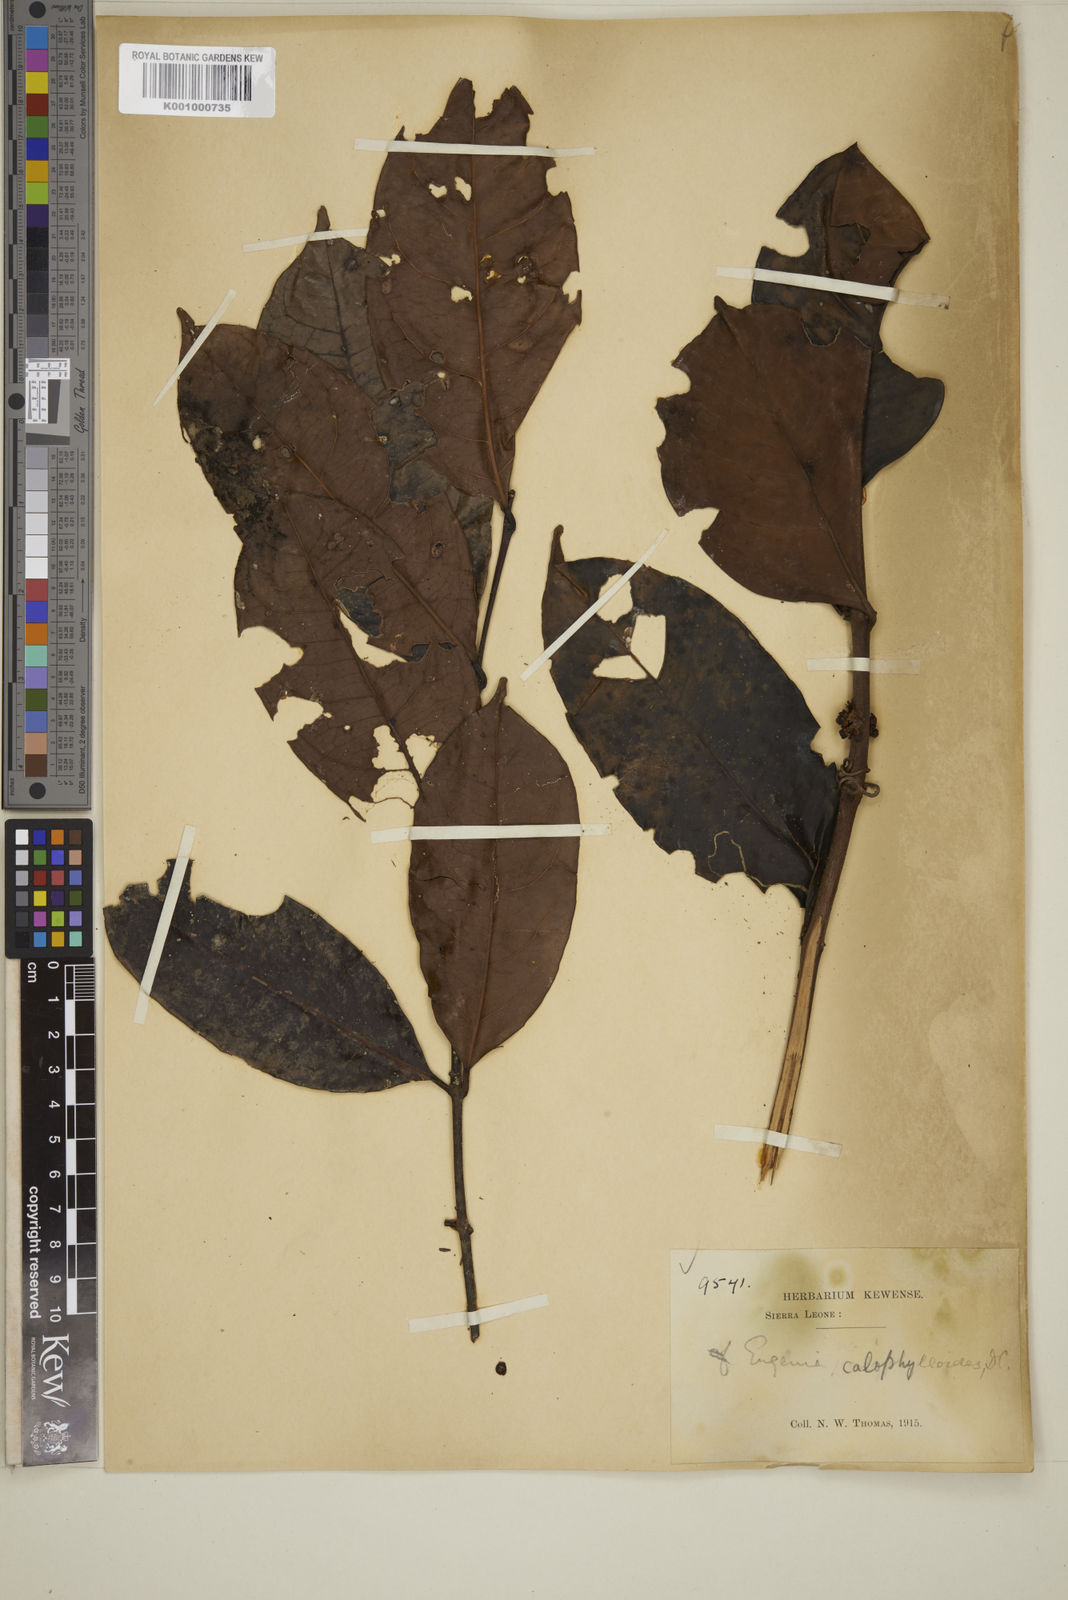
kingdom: Plantae
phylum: Tracheophyta
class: Magnoliopsida
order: Myrtales
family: Myrtaceae
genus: Eugenia
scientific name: Eugenia calophylloides
